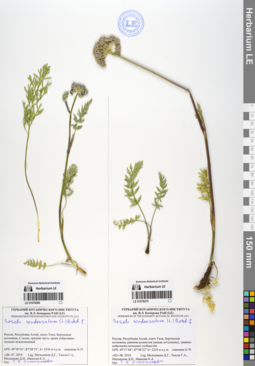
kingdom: Plantae
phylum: Tracheophyta
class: Magnoliopsida
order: Apiales
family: Apiaceae
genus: Seseli
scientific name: Seseli condensatum
